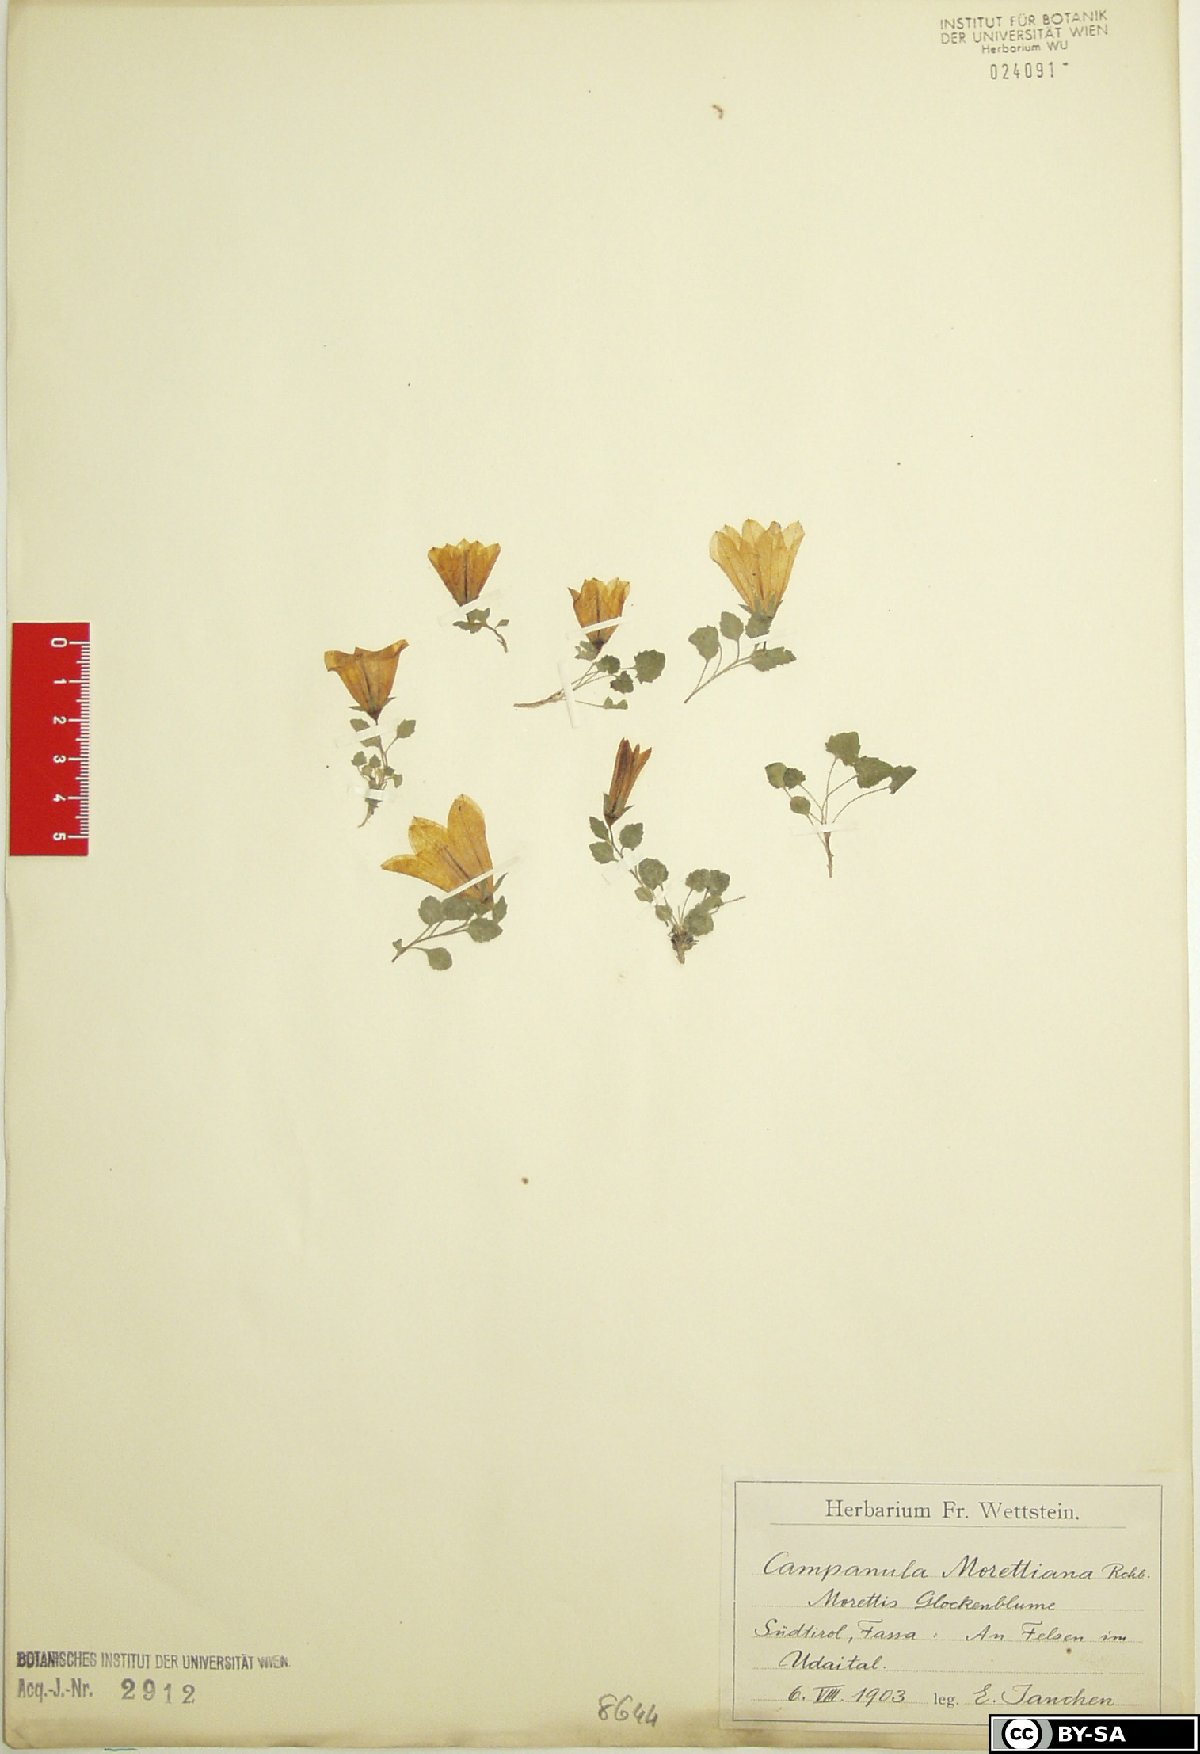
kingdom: Plantae
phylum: Tracheophyta
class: Magnoliopsida
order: Asterales
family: Campanulaceae
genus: Campanula
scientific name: Campanula morettiana
